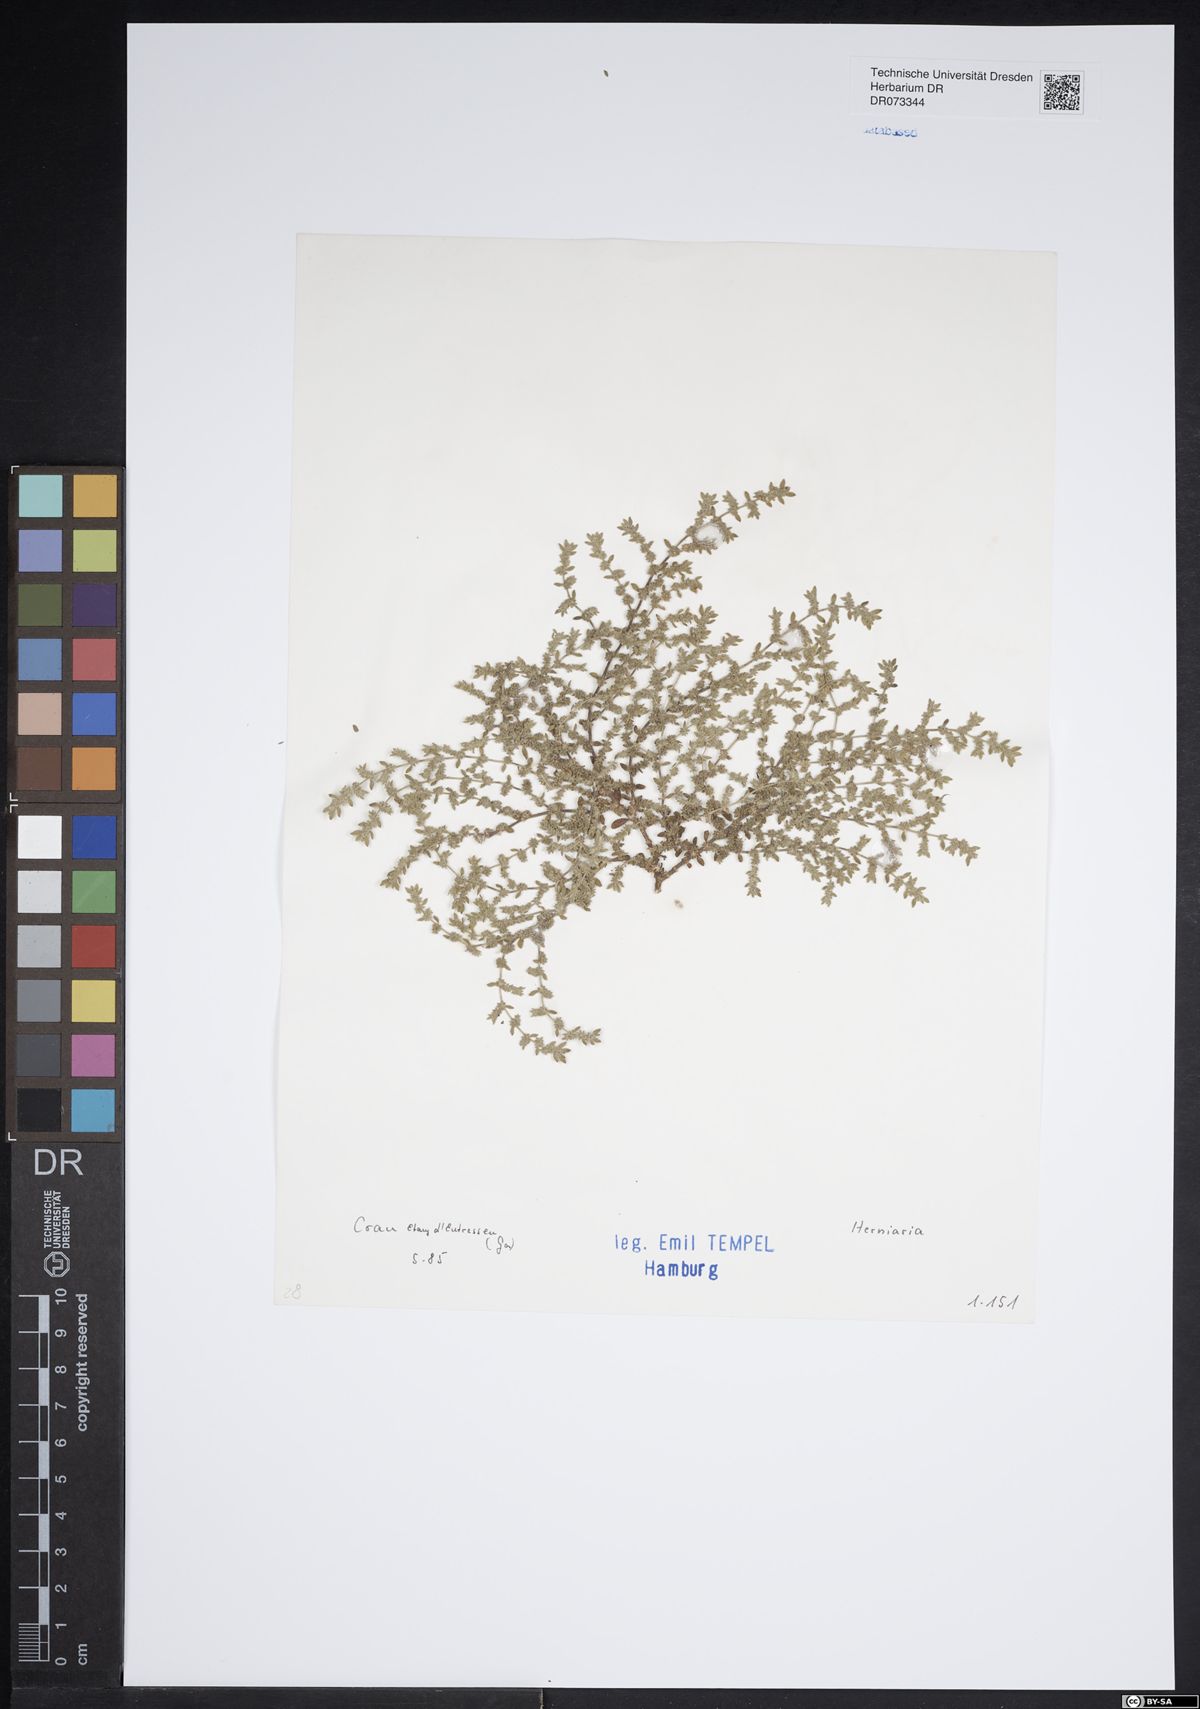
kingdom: Plantae
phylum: Tracheophyta
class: Magnoliopsida
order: Caryophyllales
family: Caryophyllaceae
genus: Herniaria
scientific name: Herniaria
